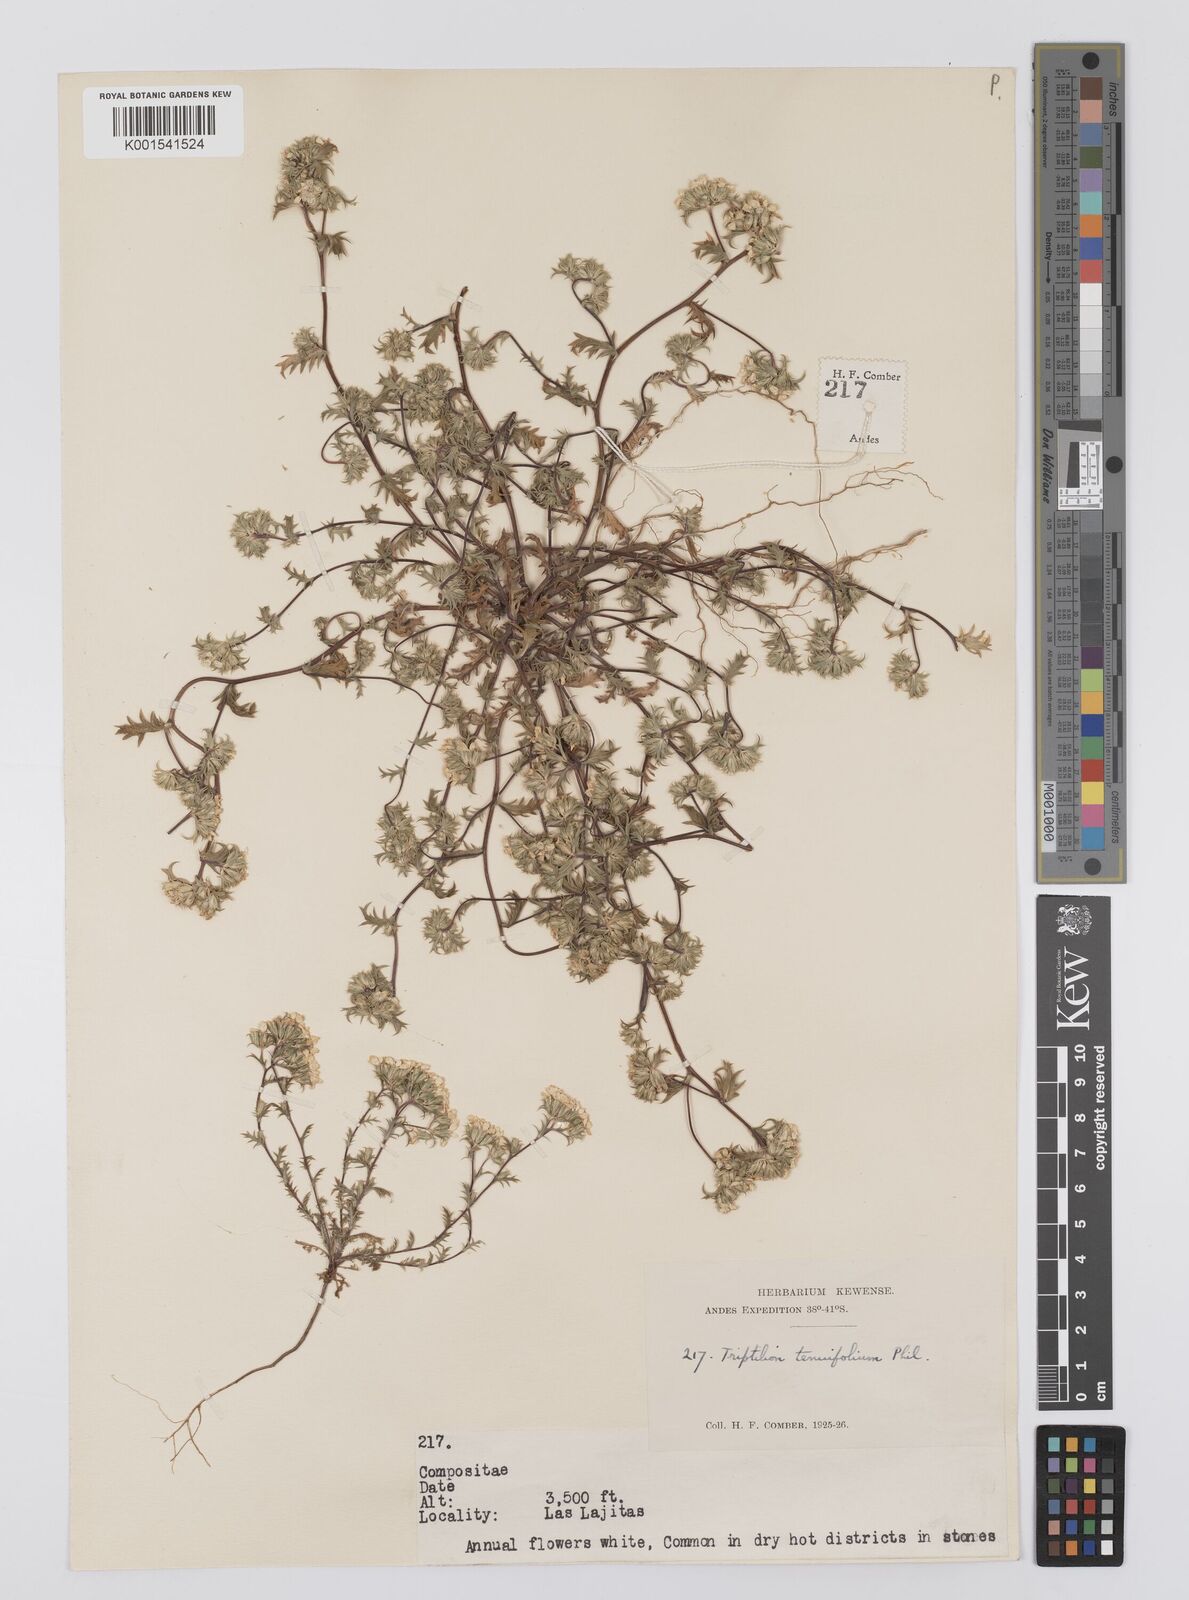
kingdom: Plantae
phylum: Tracheophyta
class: Magnoliopsida
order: Asterales
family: Asteraceae
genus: Triptilion
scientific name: Triptilion achilleae
